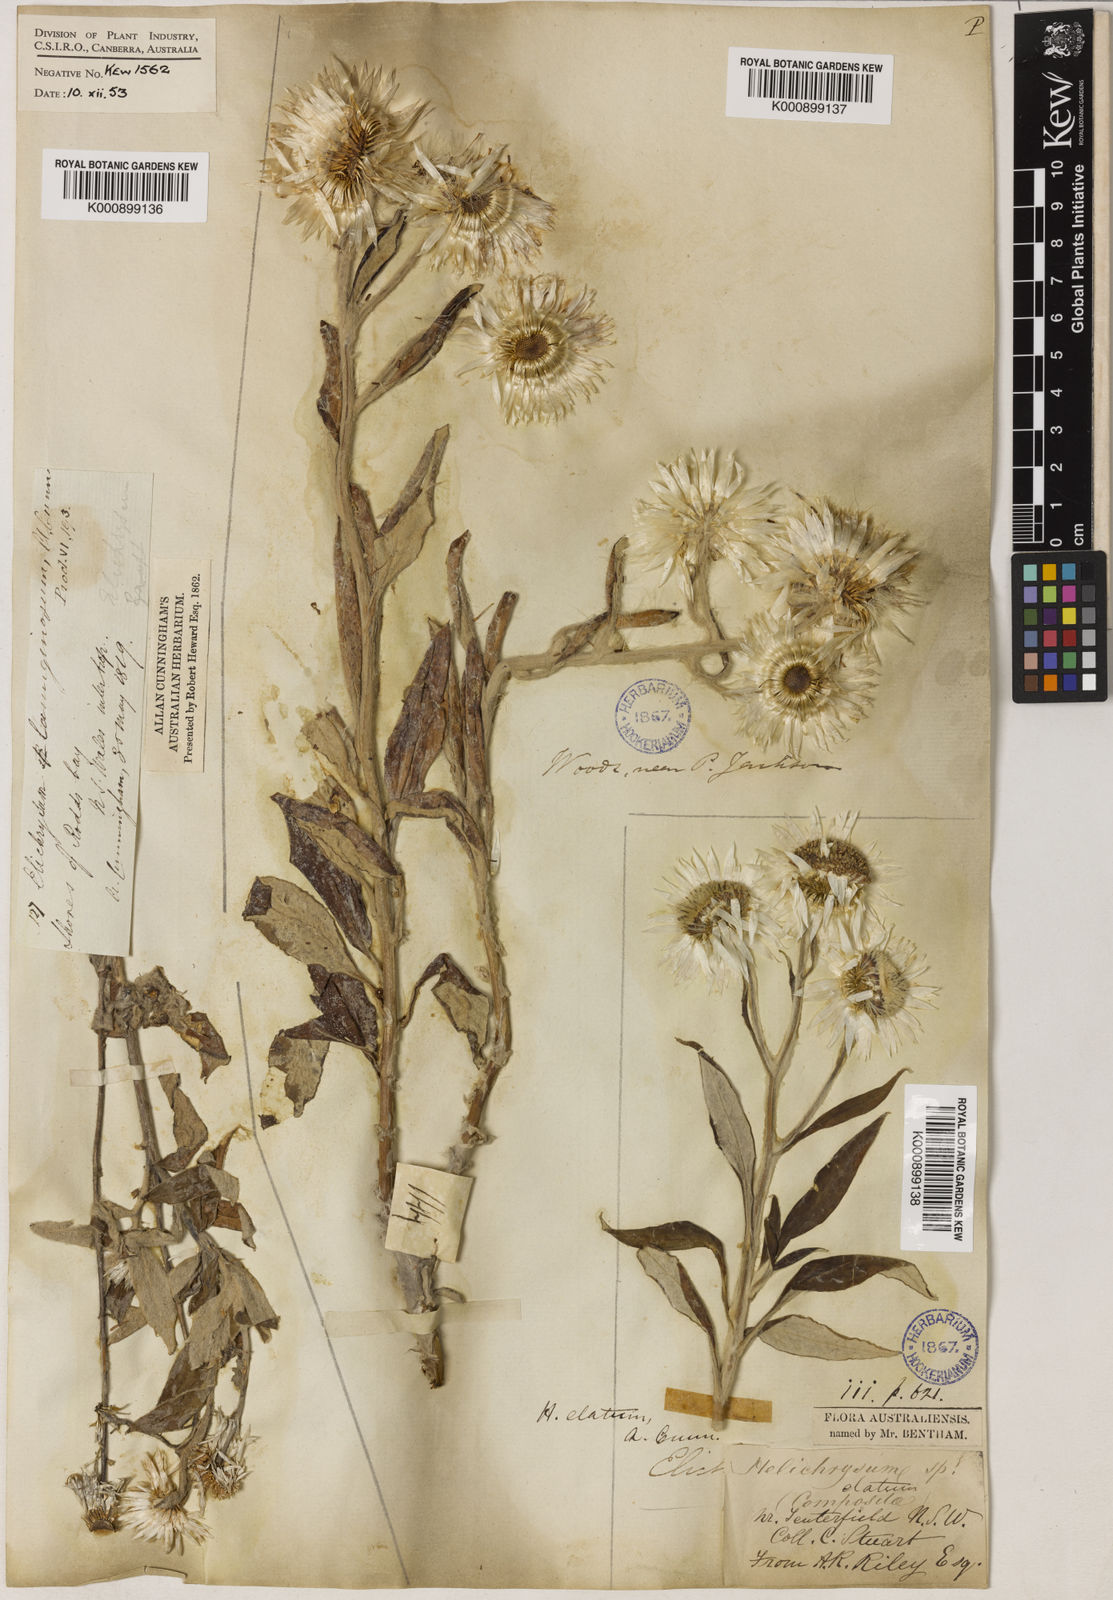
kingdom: Plantae
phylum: Tracheophyta
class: Magnoliopsida
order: Asterales
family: Asteraceae
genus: Leucozoma
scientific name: Leucozoma elatum
